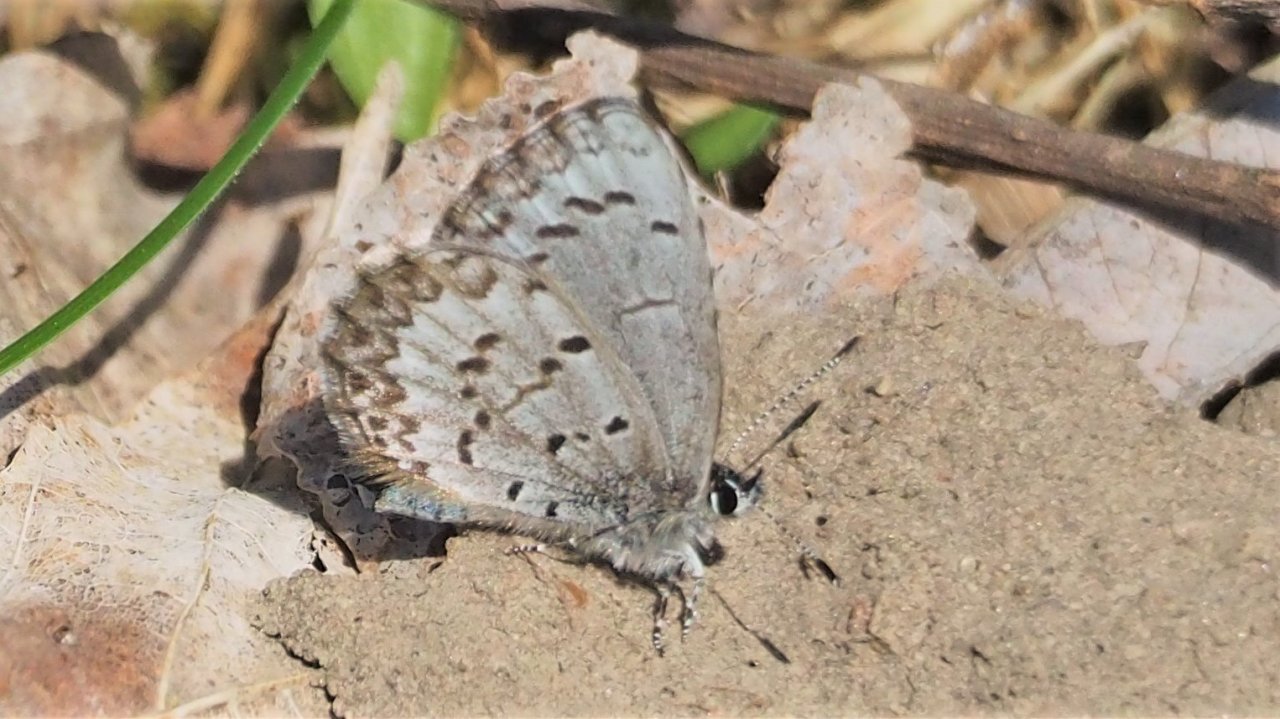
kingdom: Animalia
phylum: Arthropoda
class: Insecta
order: Lepidoptera
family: Lycaenidae
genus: Celastrina
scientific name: Celastrina lucia
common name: Northern Spring Azure
